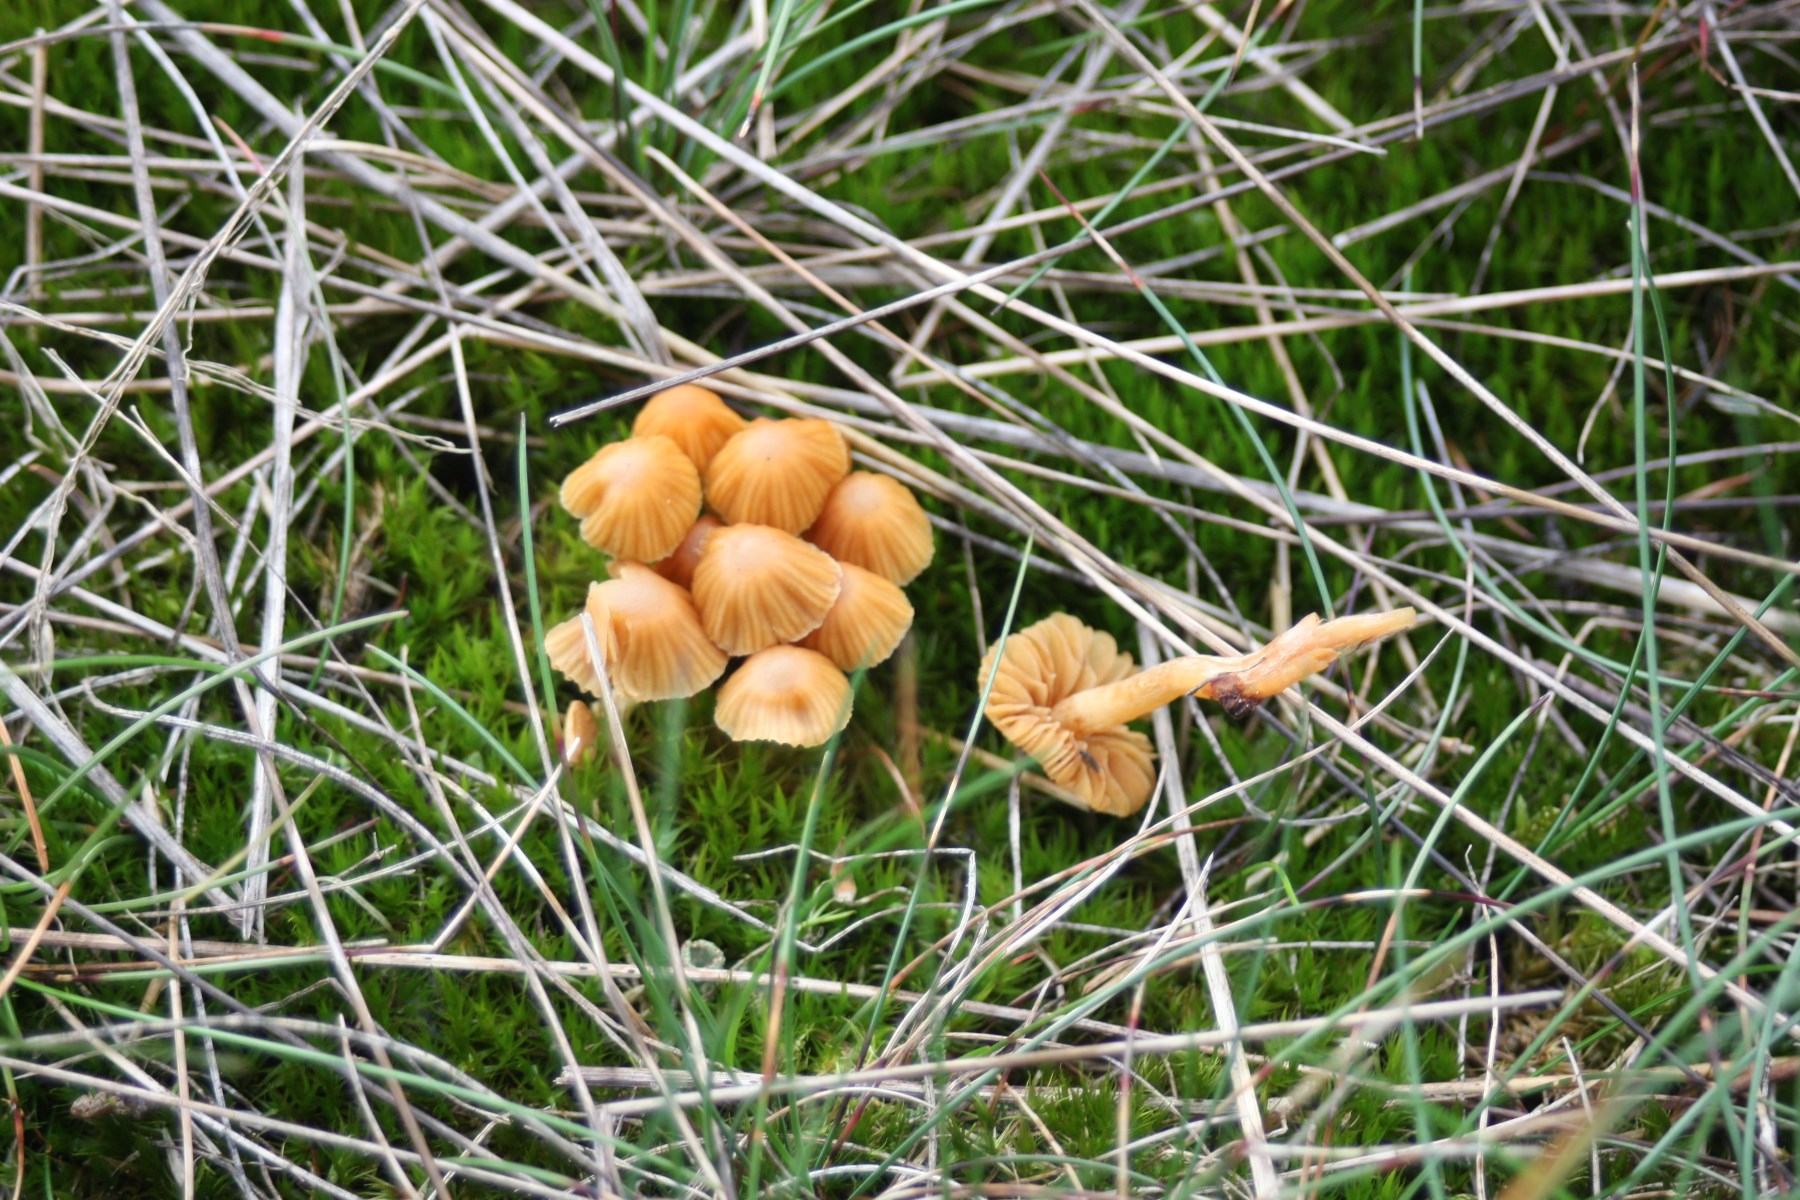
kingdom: Fungi
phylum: Basidiomycota
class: Agaricomycetes
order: Agaricales
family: Hymenogastraceae
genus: Galerina
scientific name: Galerina
